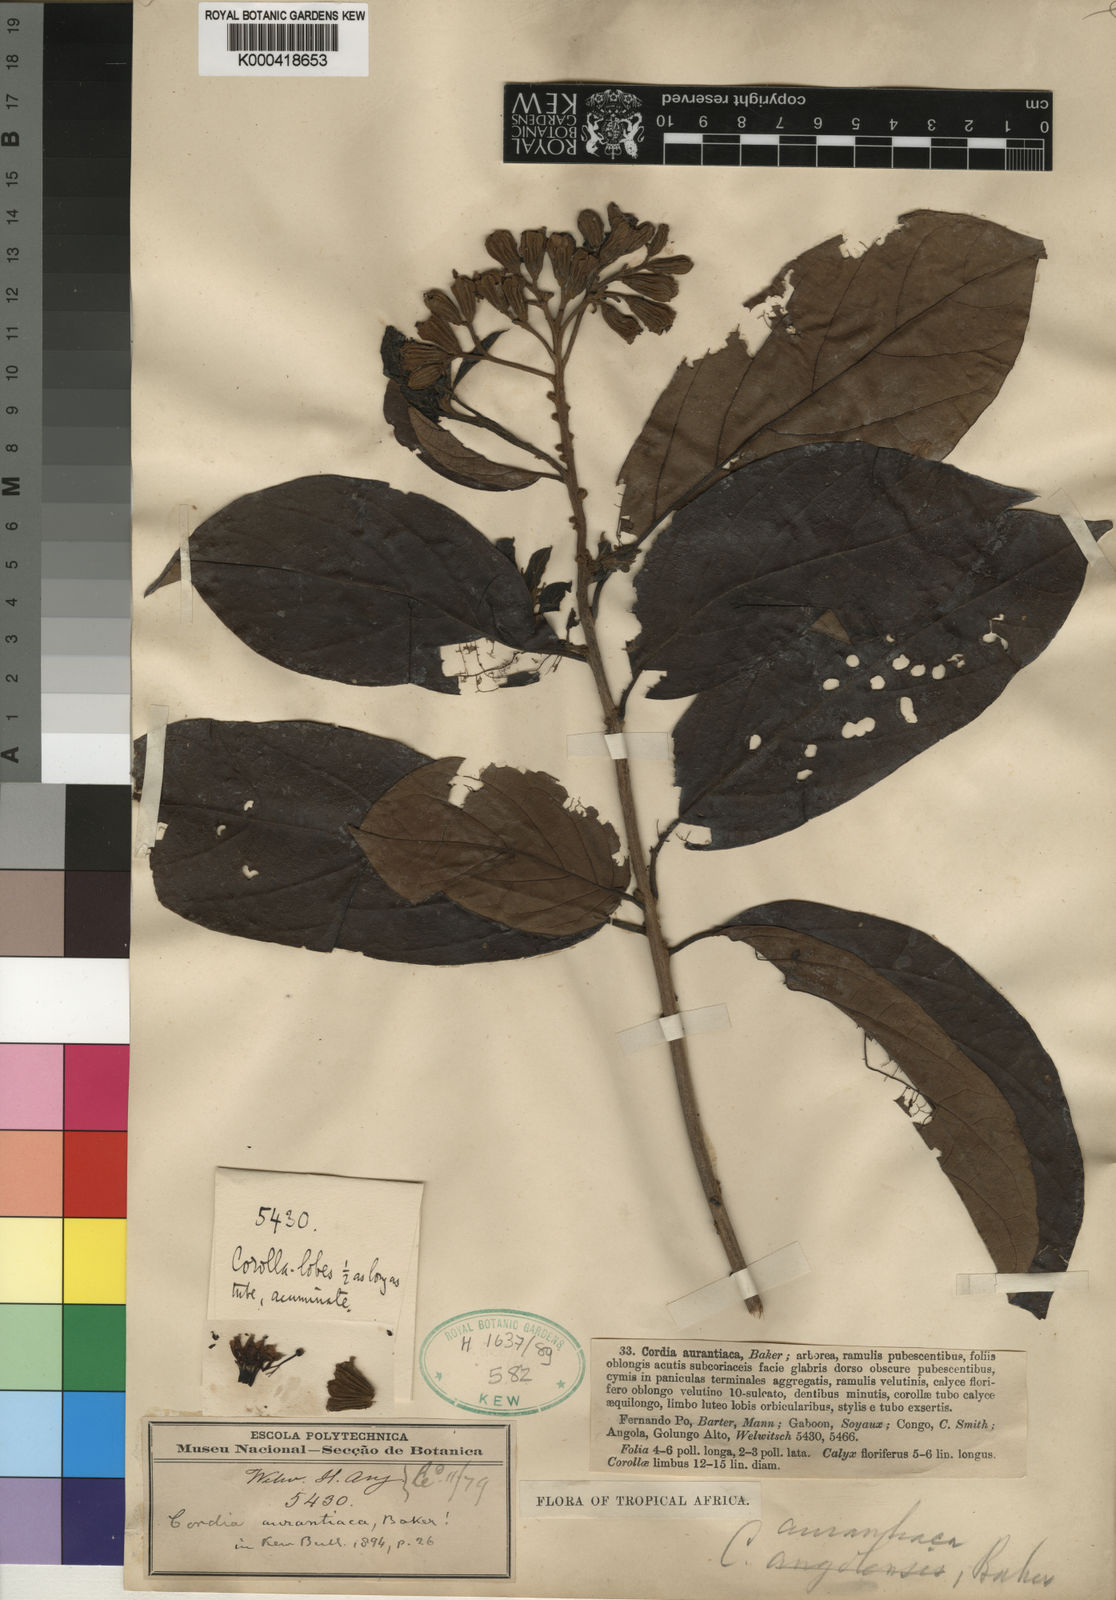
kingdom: Plantae
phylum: Tracheophyta
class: Magnoliopsida
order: Boraginales
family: Cordiaceae
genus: Cordia
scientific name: Cordia aurantiaca
